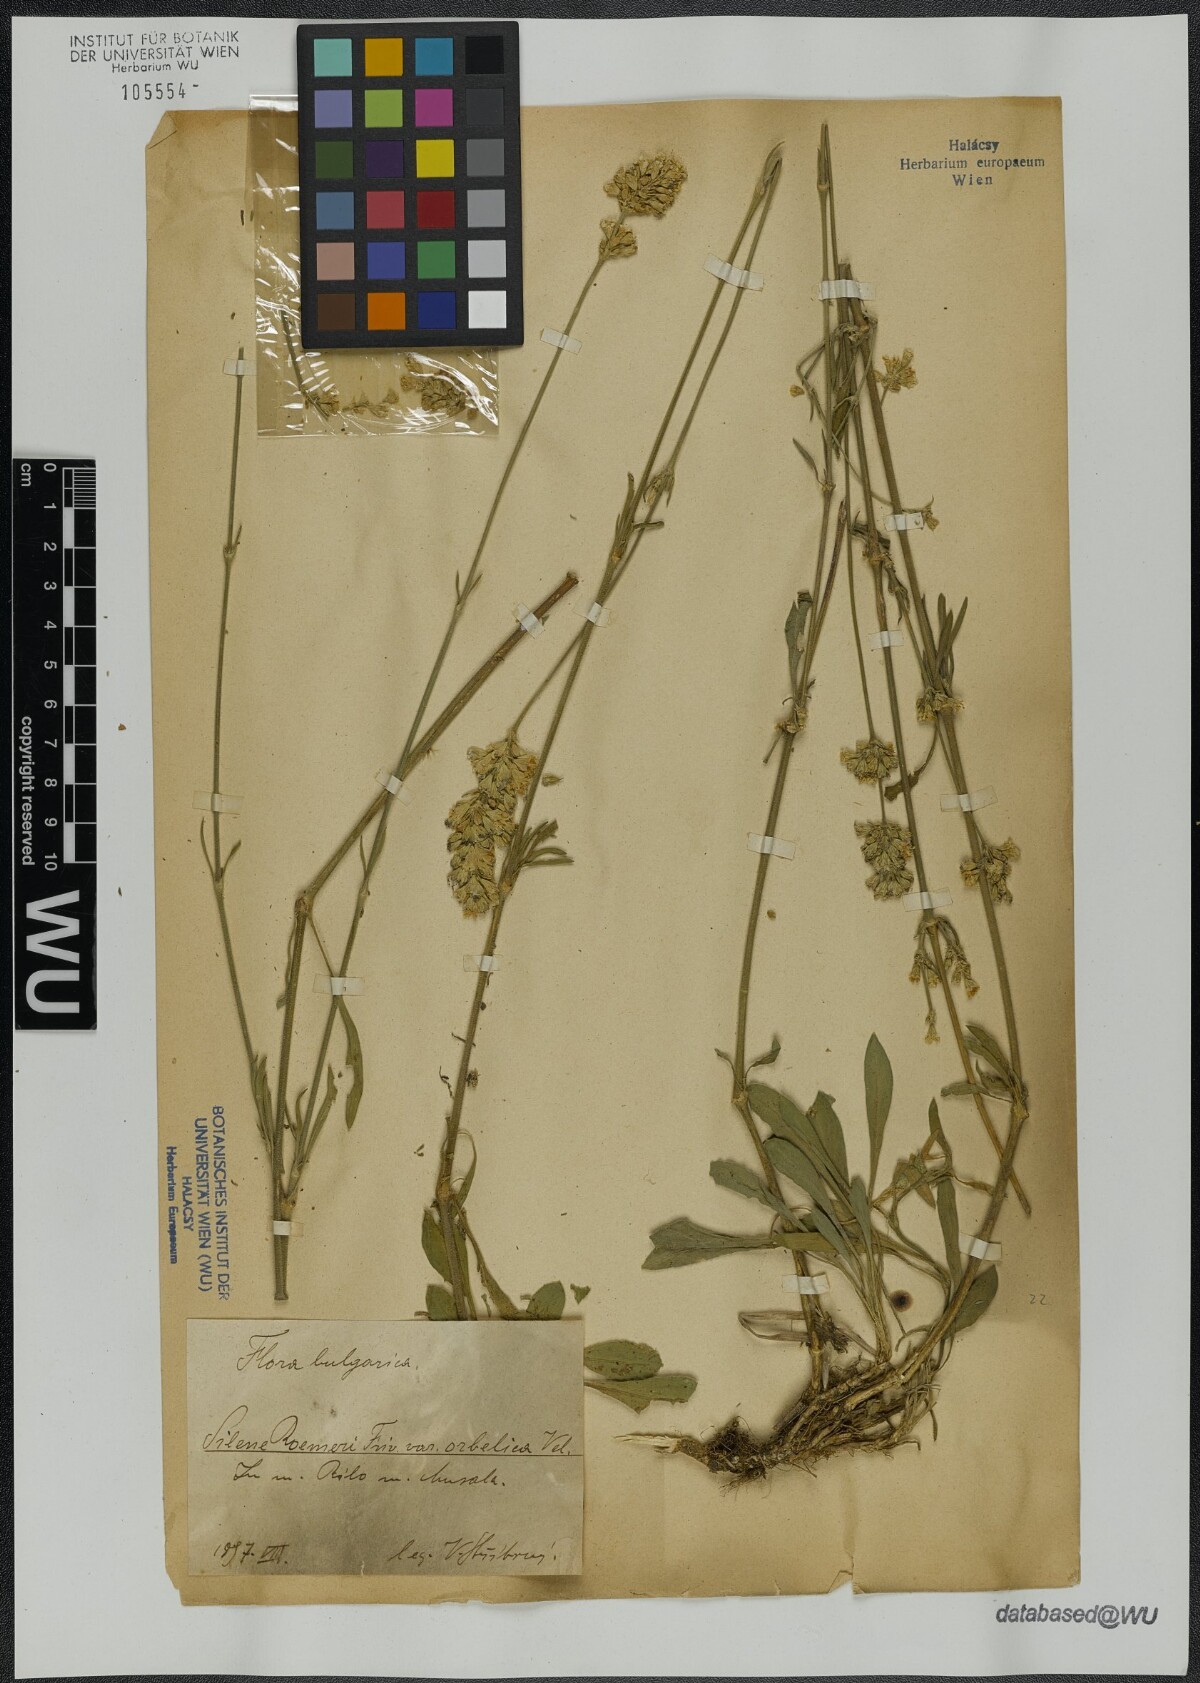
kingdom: Plantae
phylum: Tracheophyta
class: Magnoliopsida
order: Caryophyllales
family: Caryophyllaceae
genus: Silene
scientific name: Silene sendtneri
